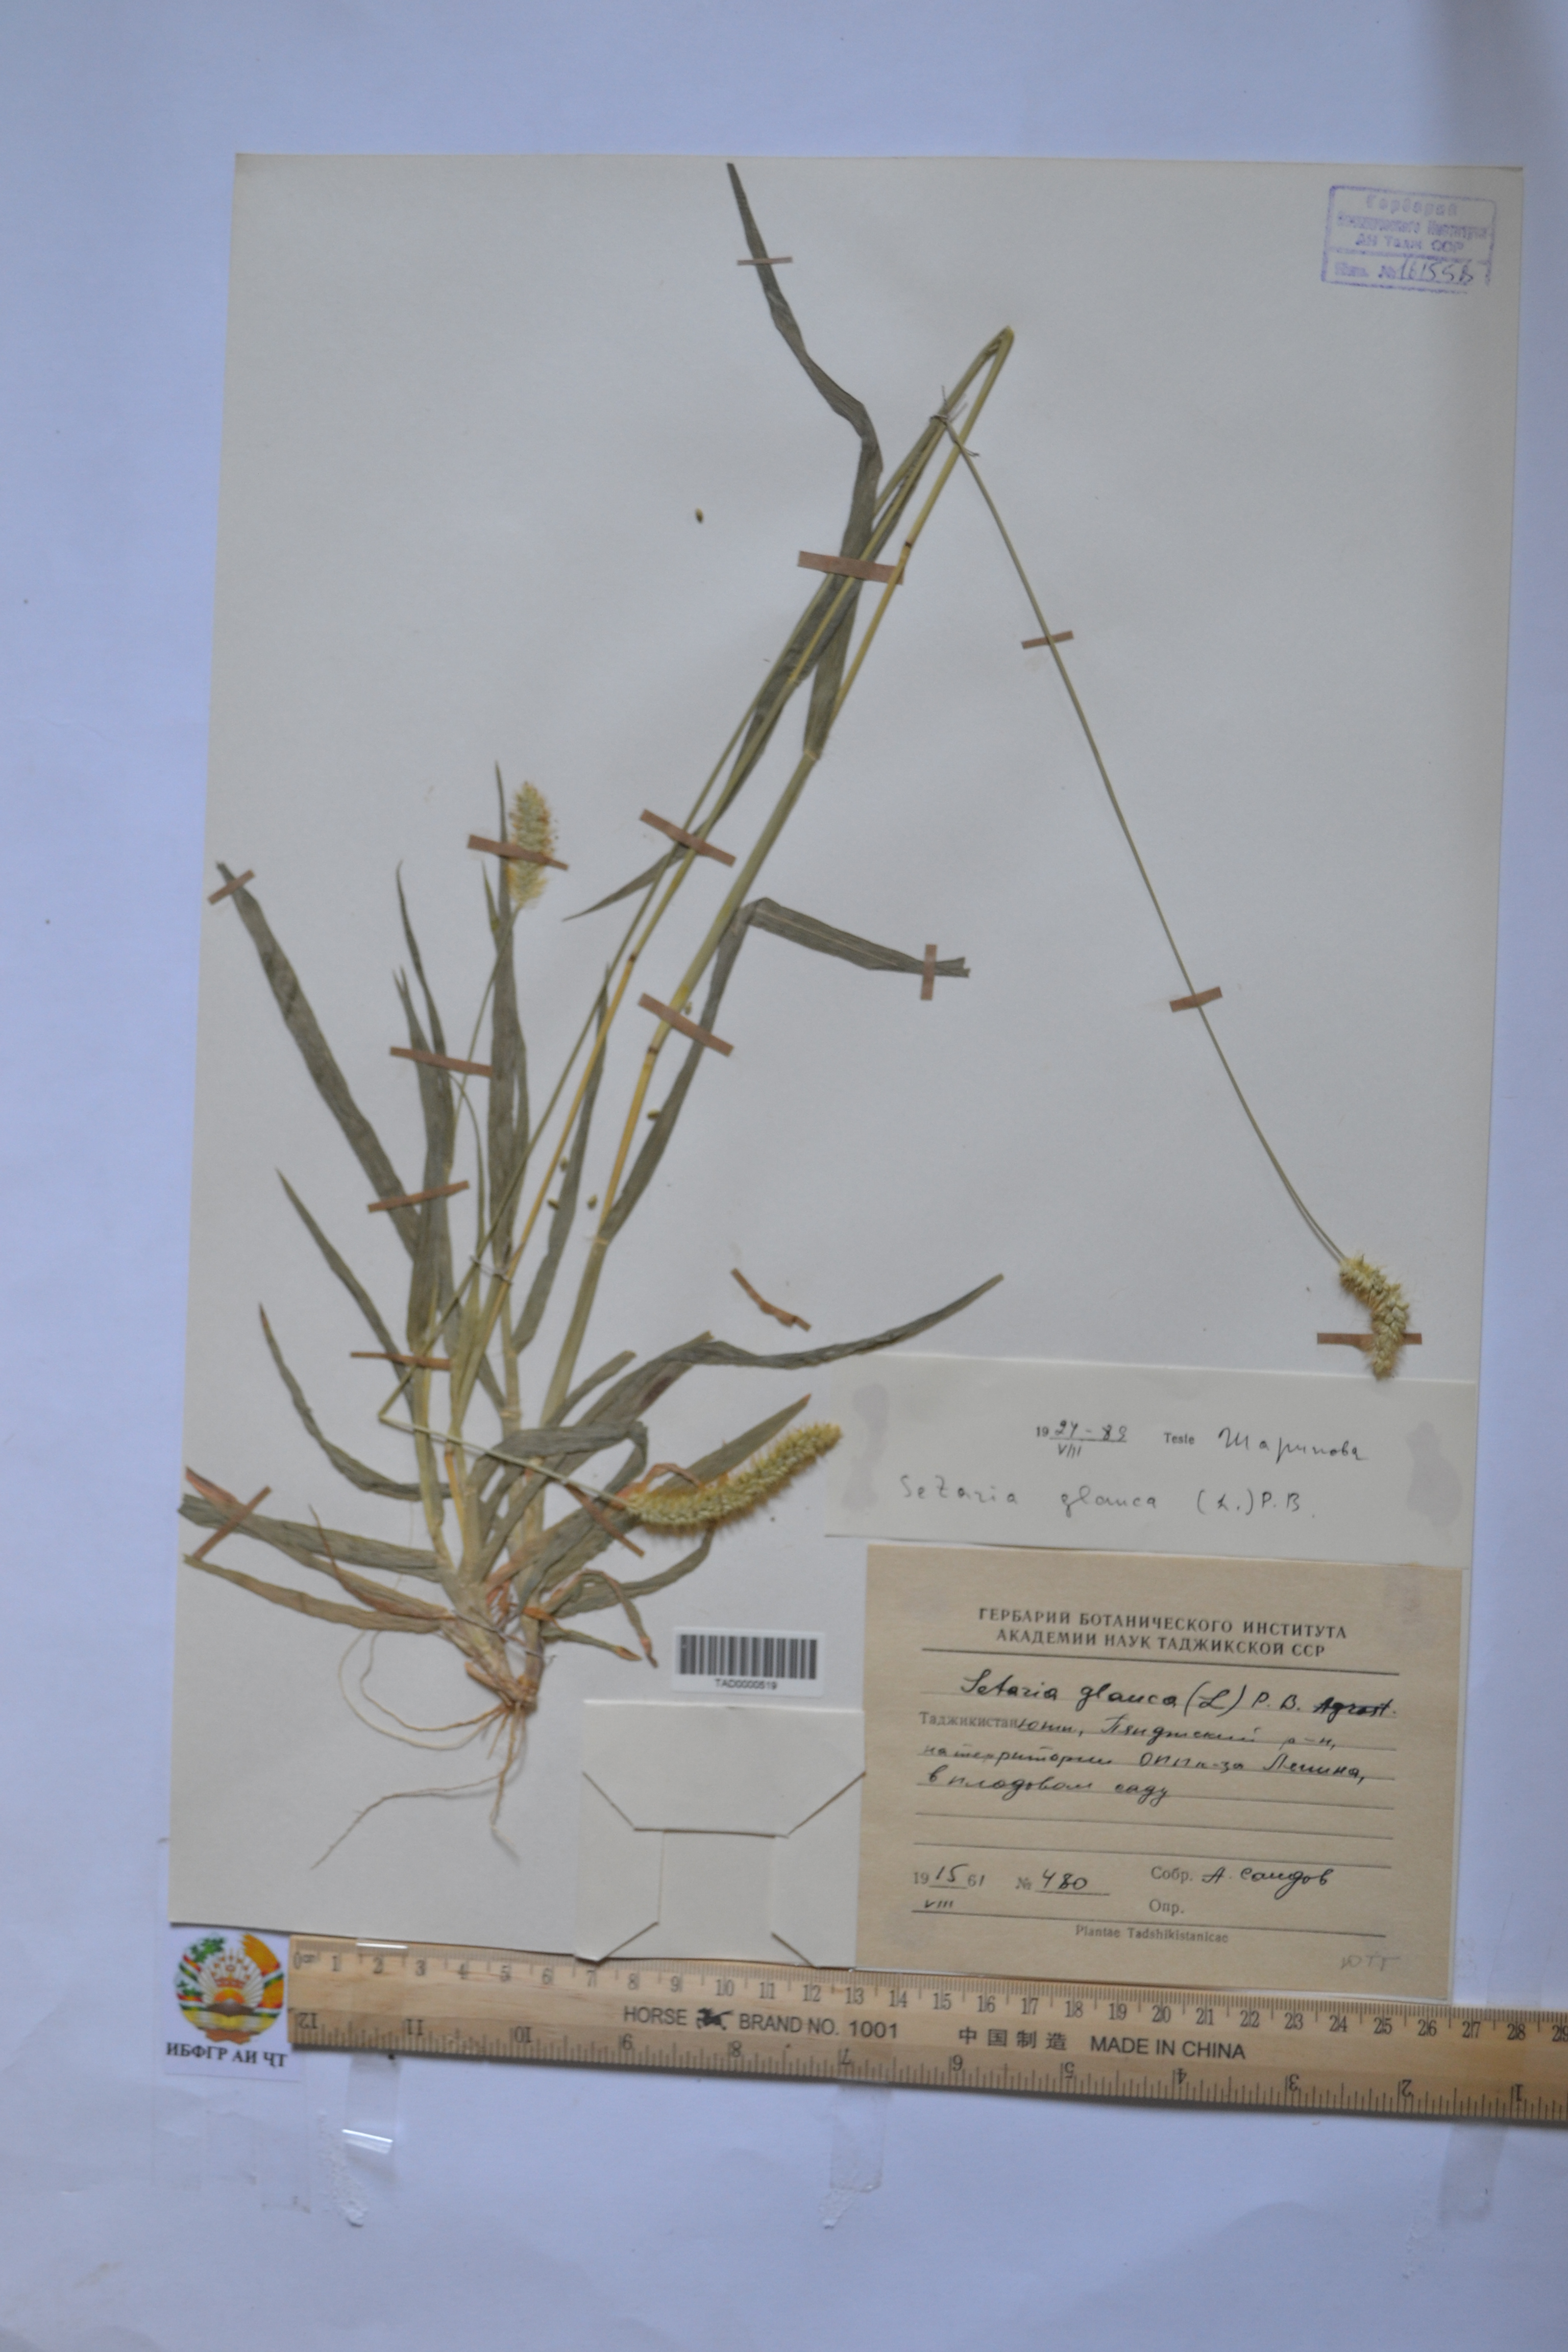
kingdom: Plantae
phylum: Tracheophyta
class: Liliopsida
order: Poales
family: Poaceae
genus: Cenchrus
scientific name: Cenchrus americanus
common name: Pearl millet
